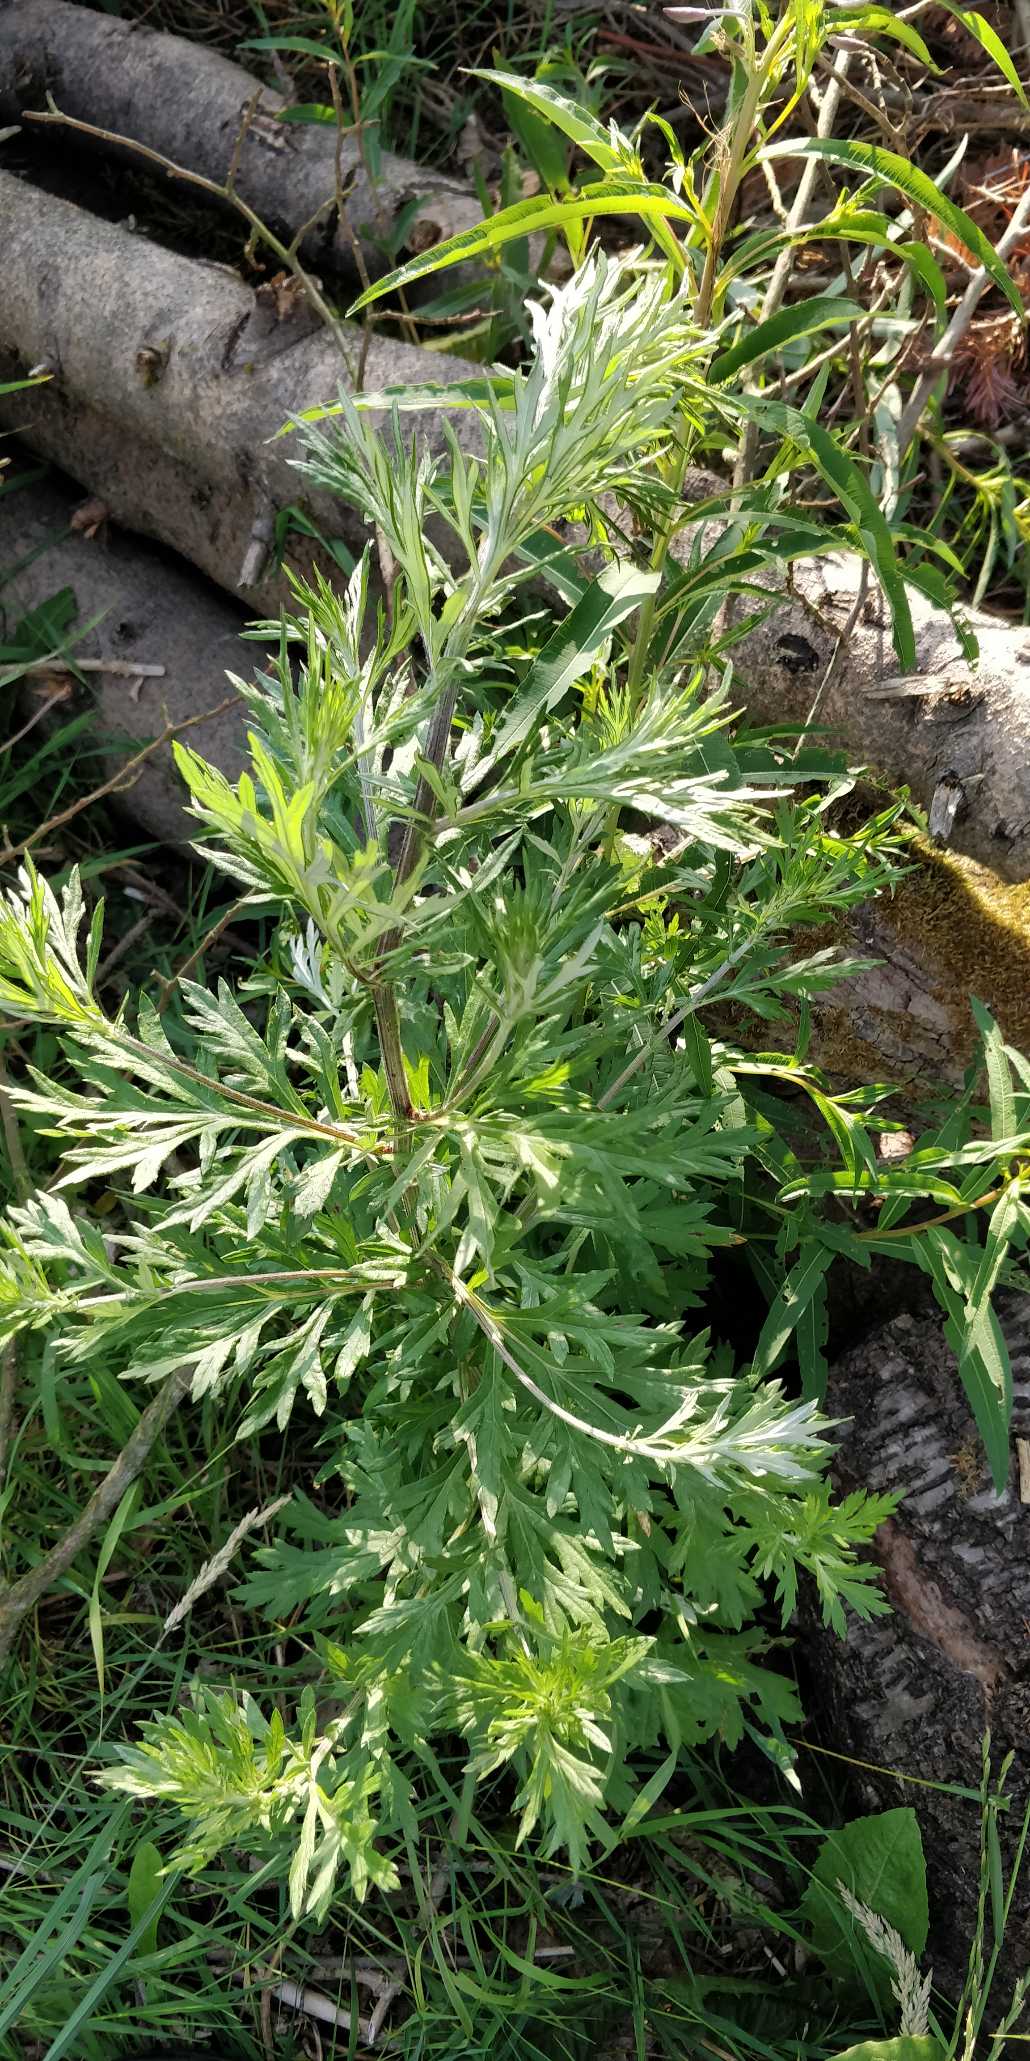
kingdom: Plantae
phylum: Tracheophyta
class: Magnoliopsida
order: Asterales
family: Asteraceae
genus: Artemisia
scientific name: Artemisia vulgaris
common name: Grå-bynke
